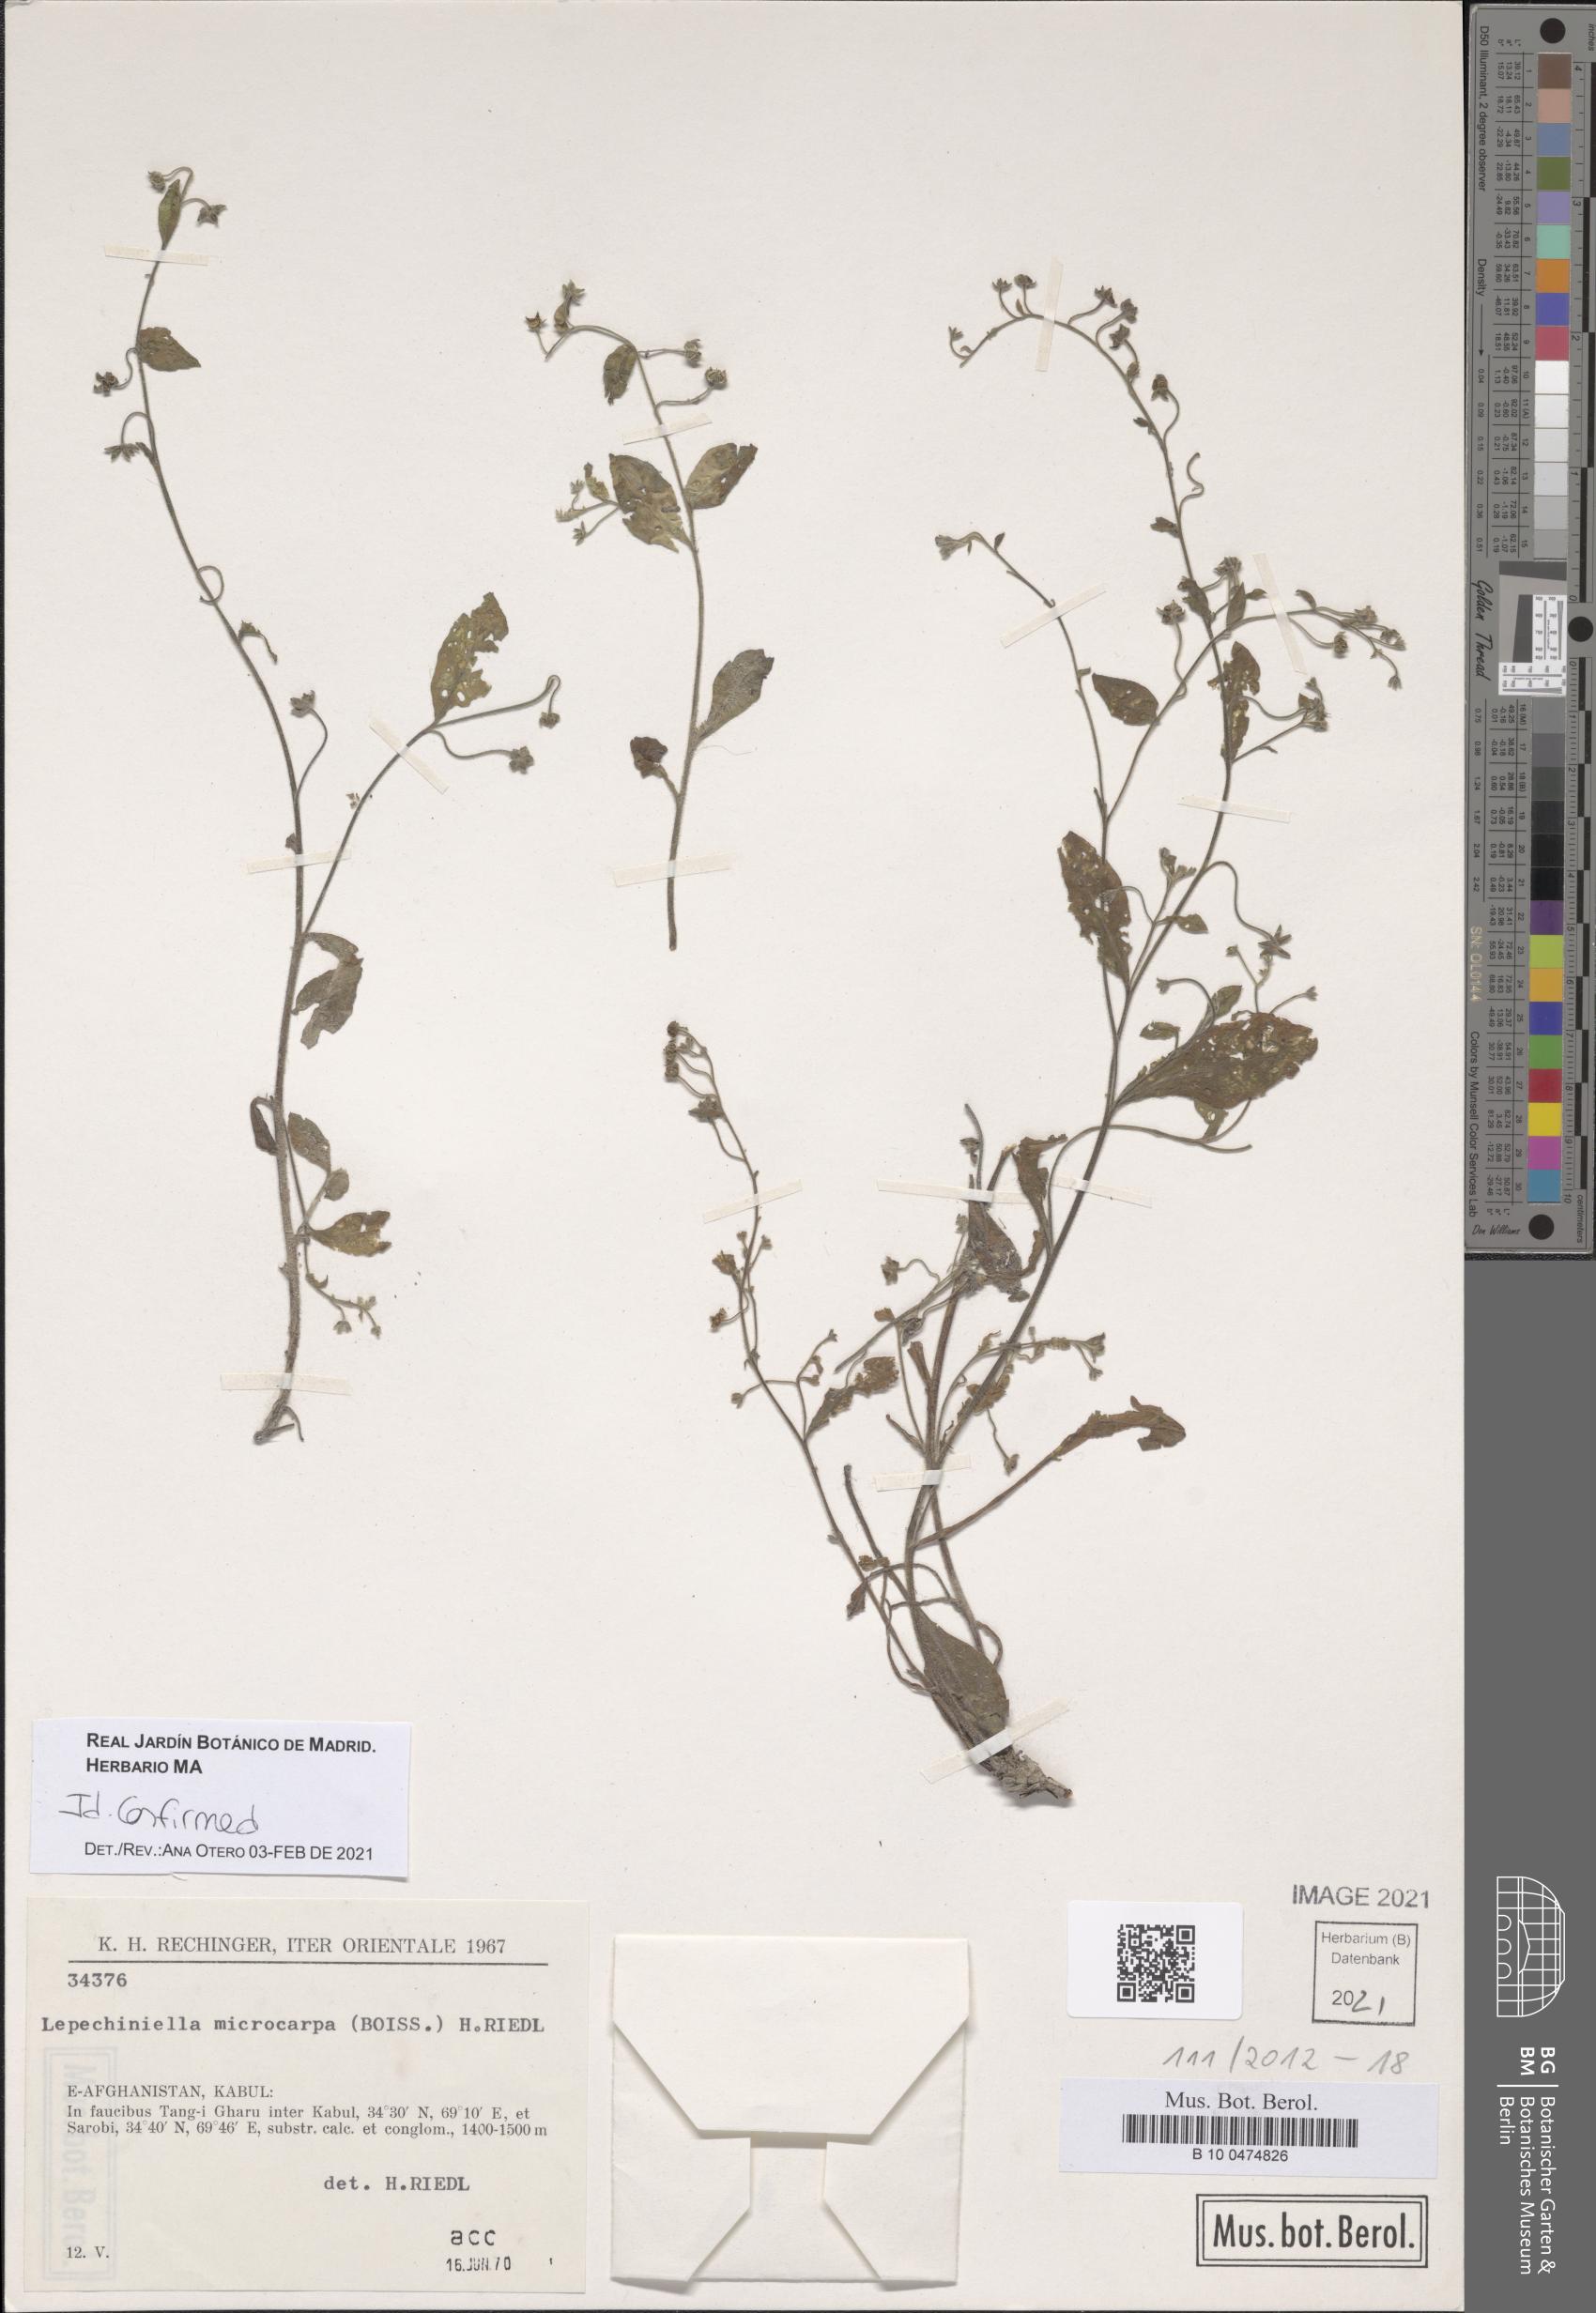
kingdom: Plantae
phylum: Tracheophyta
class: Magnoliopsida
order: Boraginales
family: Boraginaceae
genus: Lepechiniella
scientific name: Lepechiniella microcarpa
